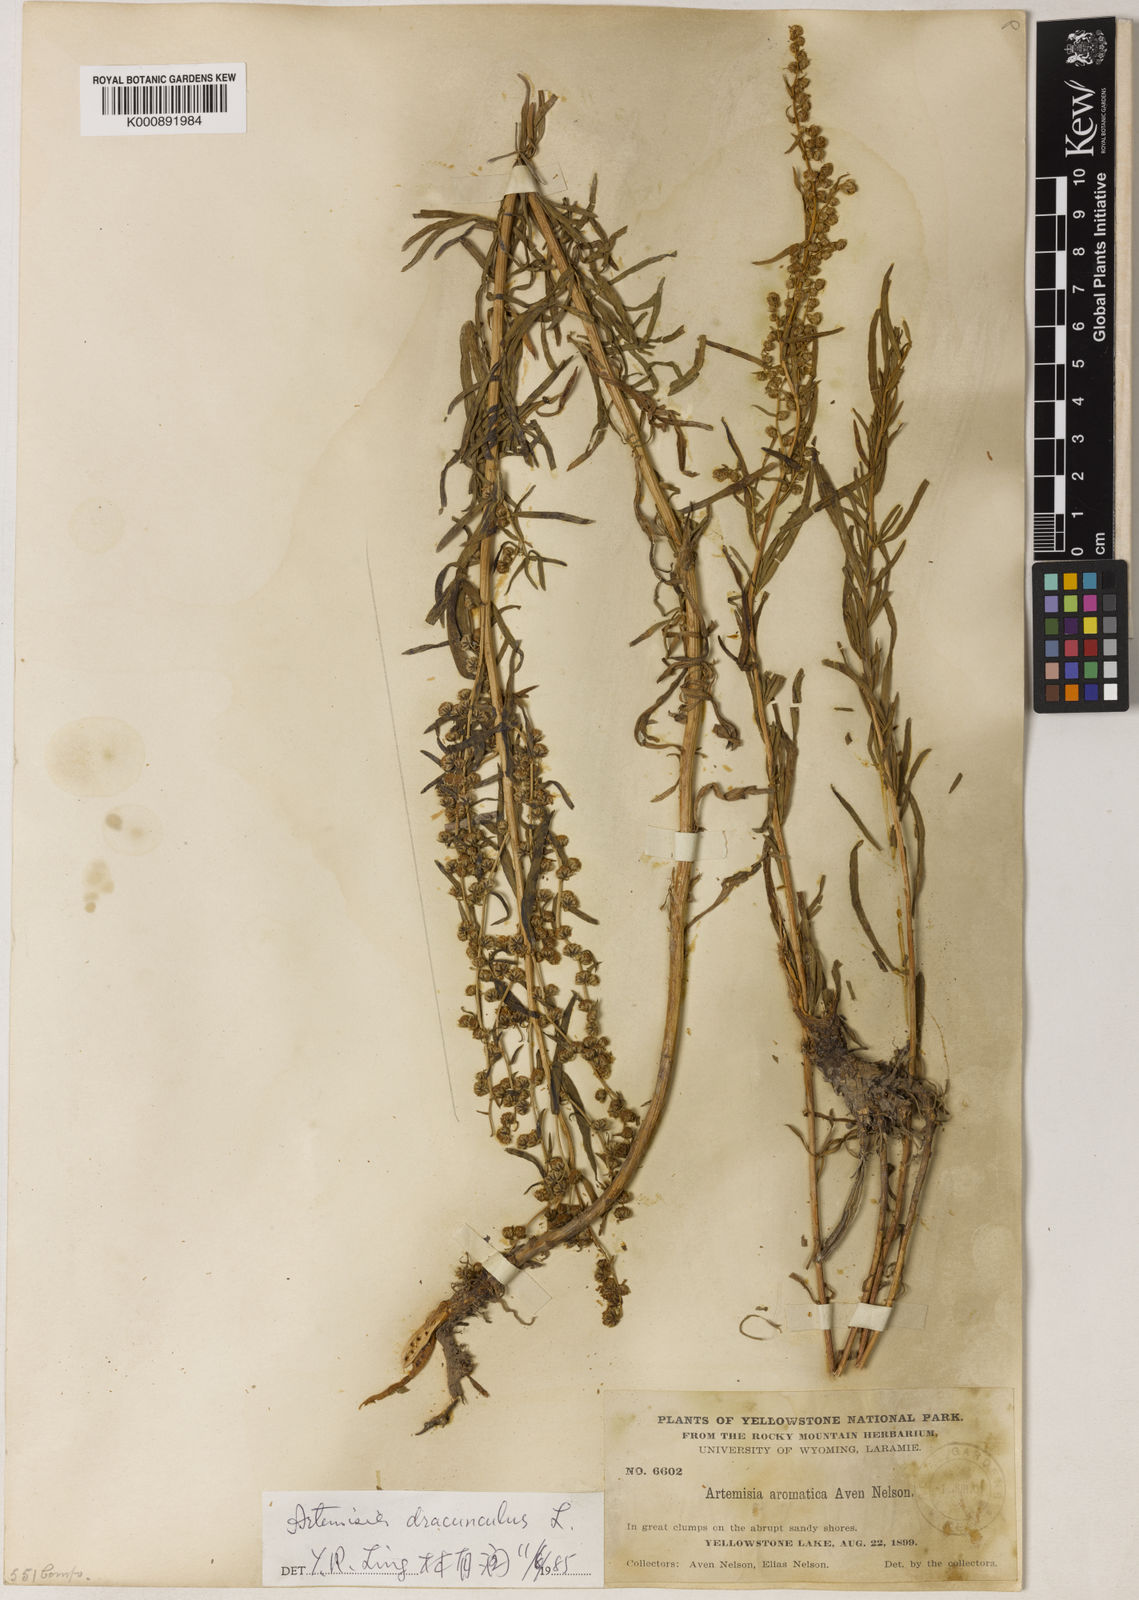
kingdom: Plantae
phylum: Tracheophyta
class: Magnoliopsida
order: Asterales
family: Asteraceae
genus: Artemisia
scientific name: Artemisia dracunculus
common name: Tarragon
